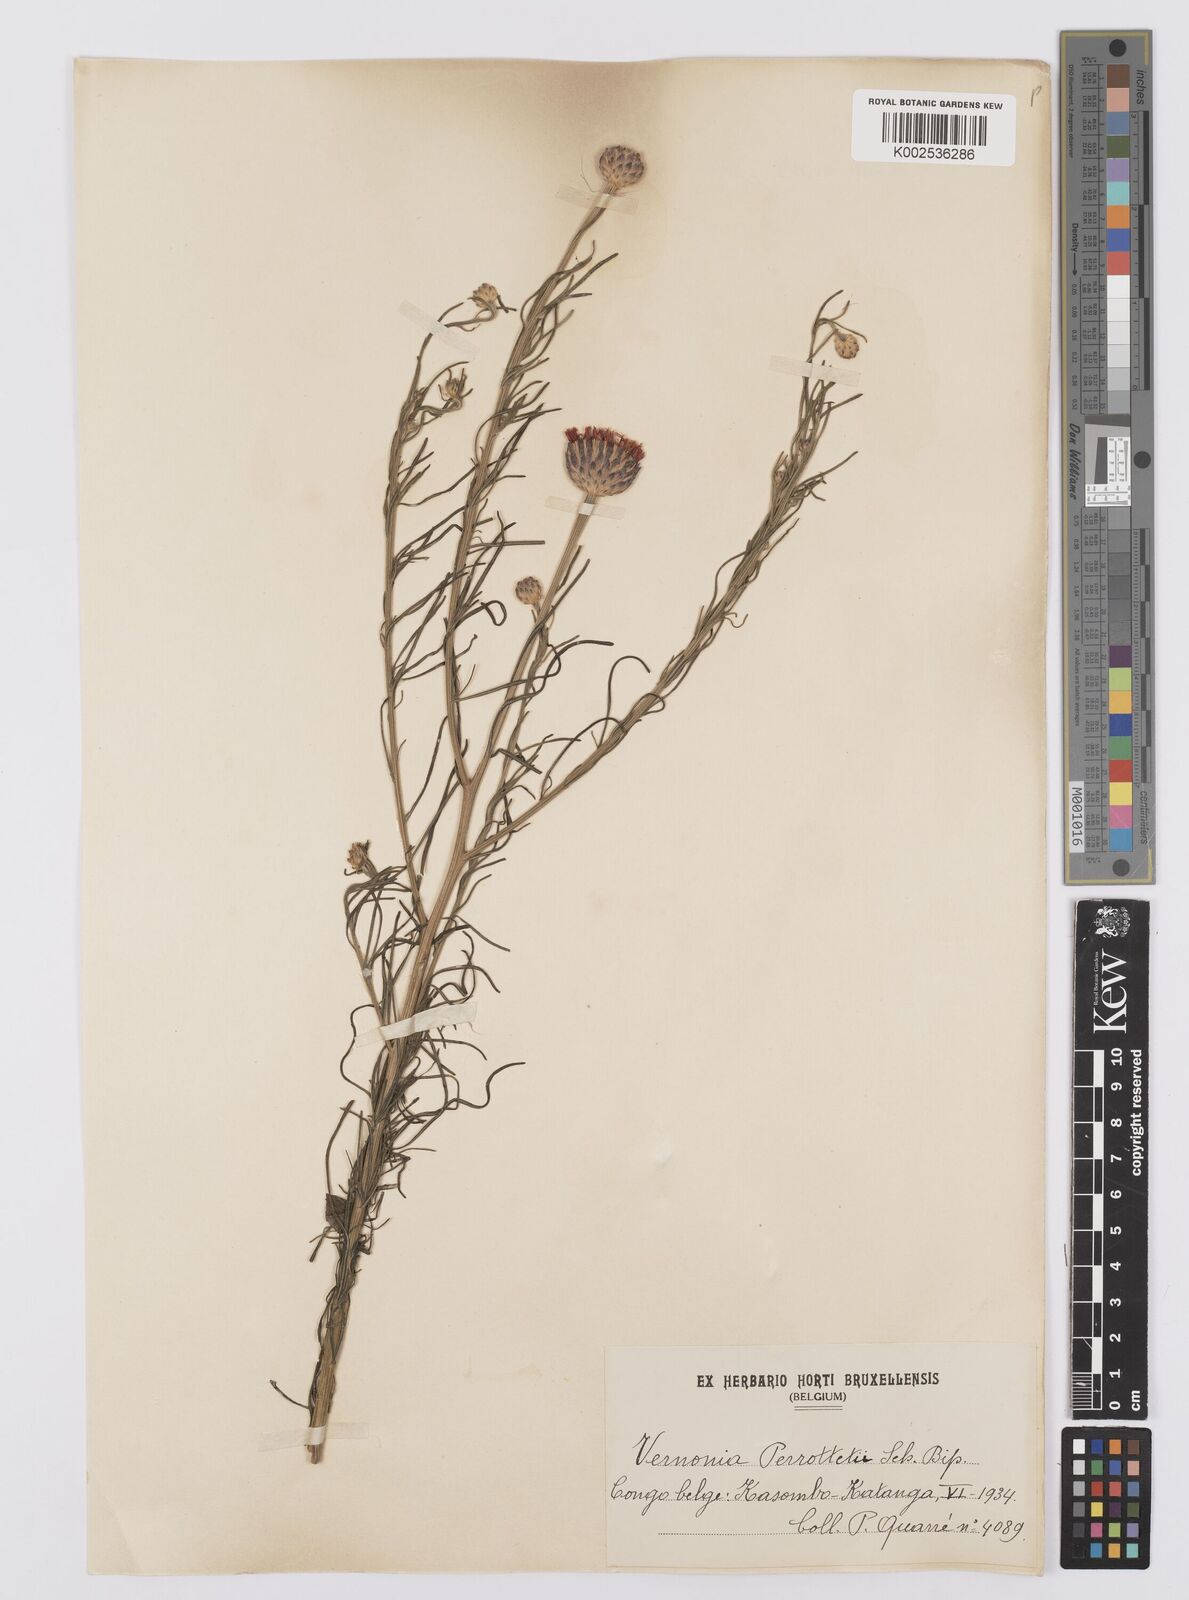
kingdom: Plantae
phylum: Tracheophyta
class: Magnoliopsida
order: Asterales
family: Asteraceae
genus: Crystallopollen
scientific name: Crystallopollen serratuloides
